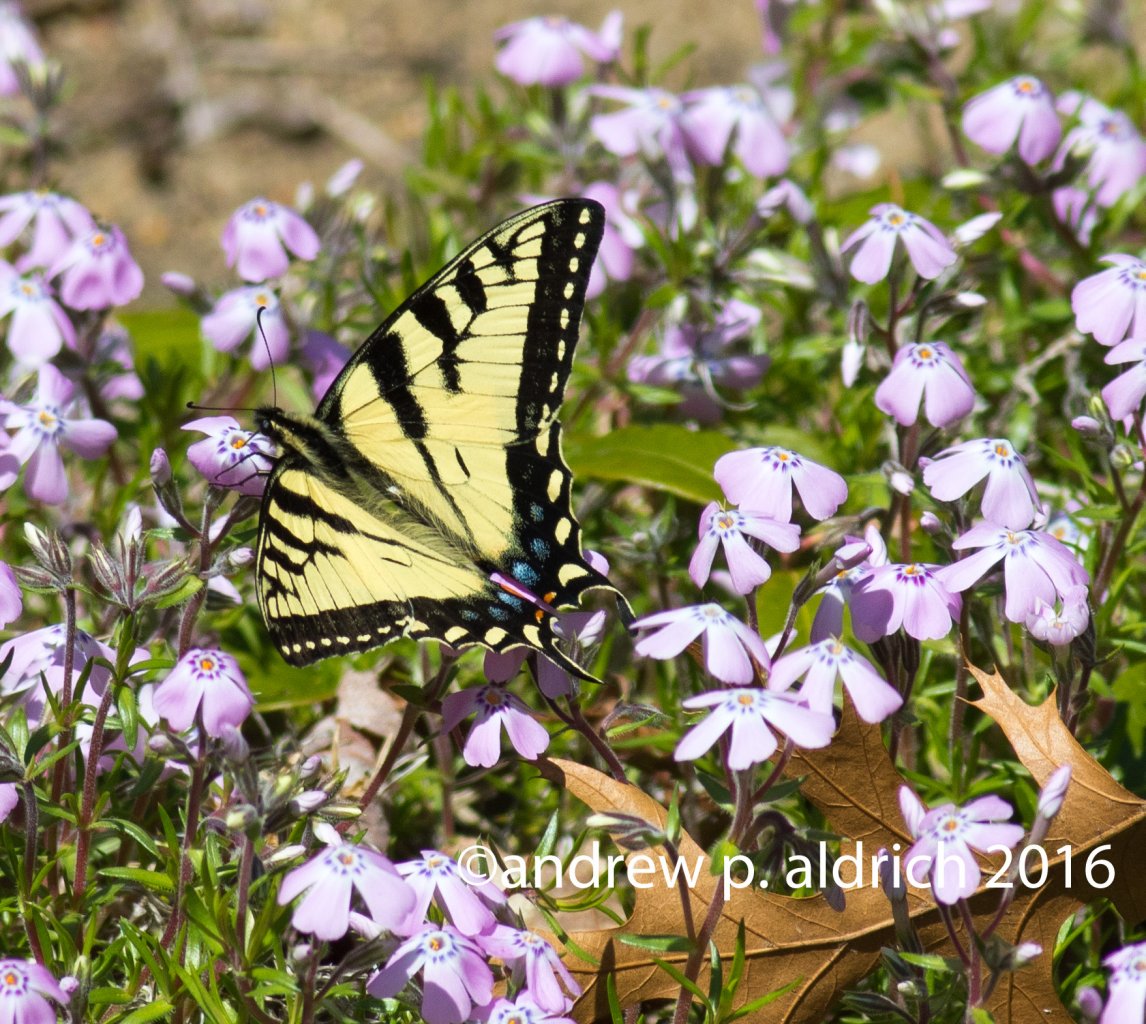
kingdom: Animalia
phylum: Arthropoda
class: Insecta
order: Lepidoptera
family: Papilionidae
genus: Pterourus
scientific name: Pterourus canadensis
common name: Canadian Tiger Swallowtail
